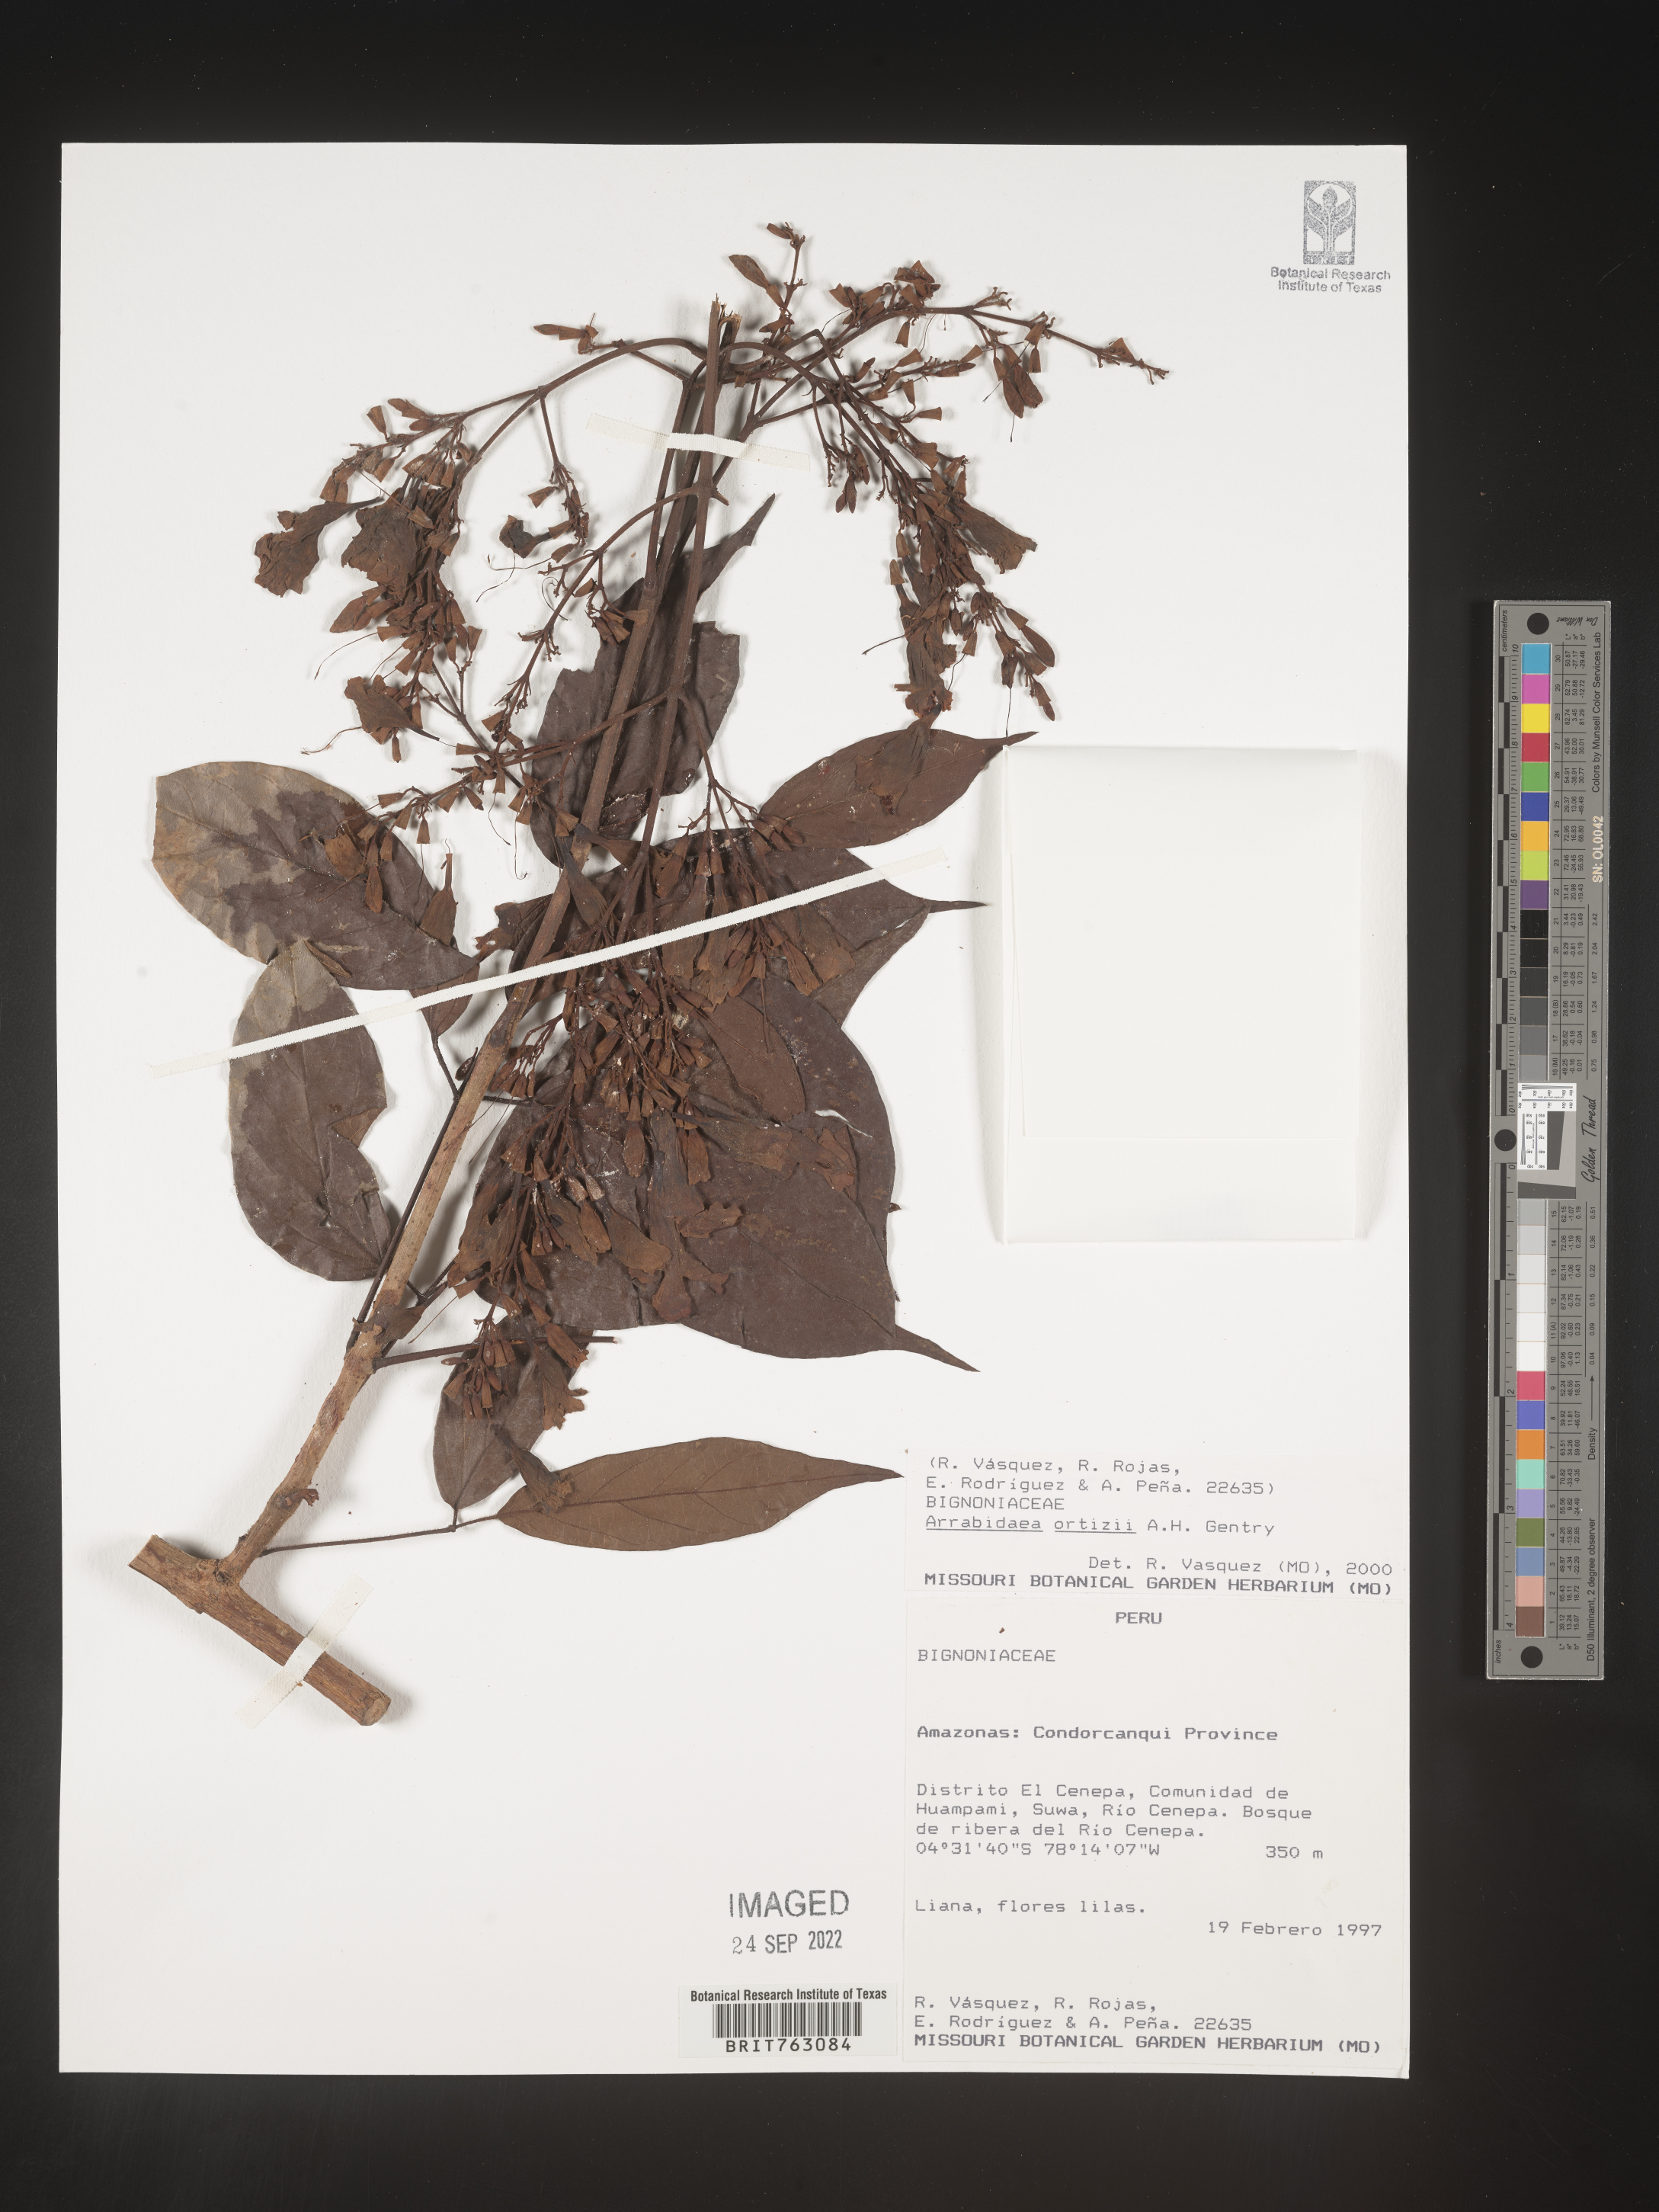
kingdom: Plantae
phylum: Tracheophyta
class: Magnoliopsida
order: Rosales
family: Rhamnaceae
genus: Arrabidaea
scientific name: Arrabidaea
